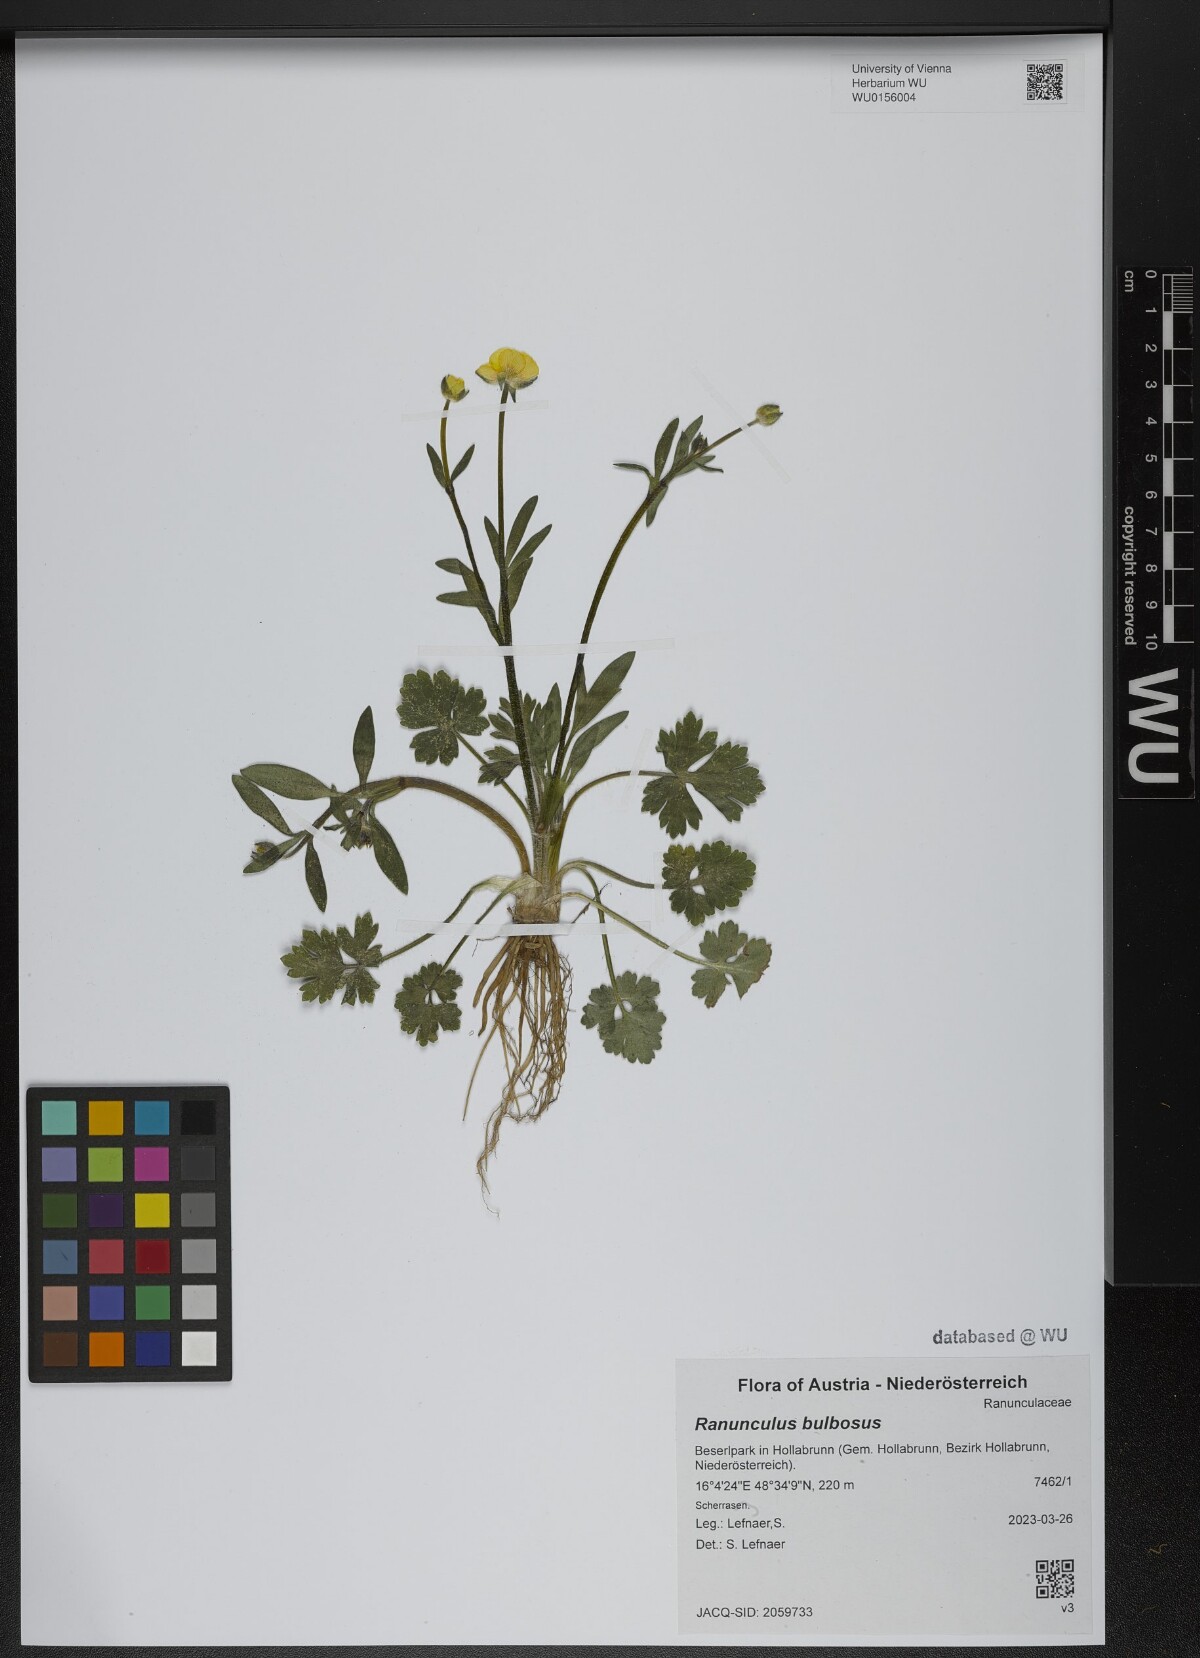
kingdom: Plantae
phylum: Tracheophyta
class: Magnoliopsida
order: Ranunculales
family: Ranunculaceae
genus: Ranunculus
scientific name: Ranunculus bulbosus
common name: Bulbous buttercup
